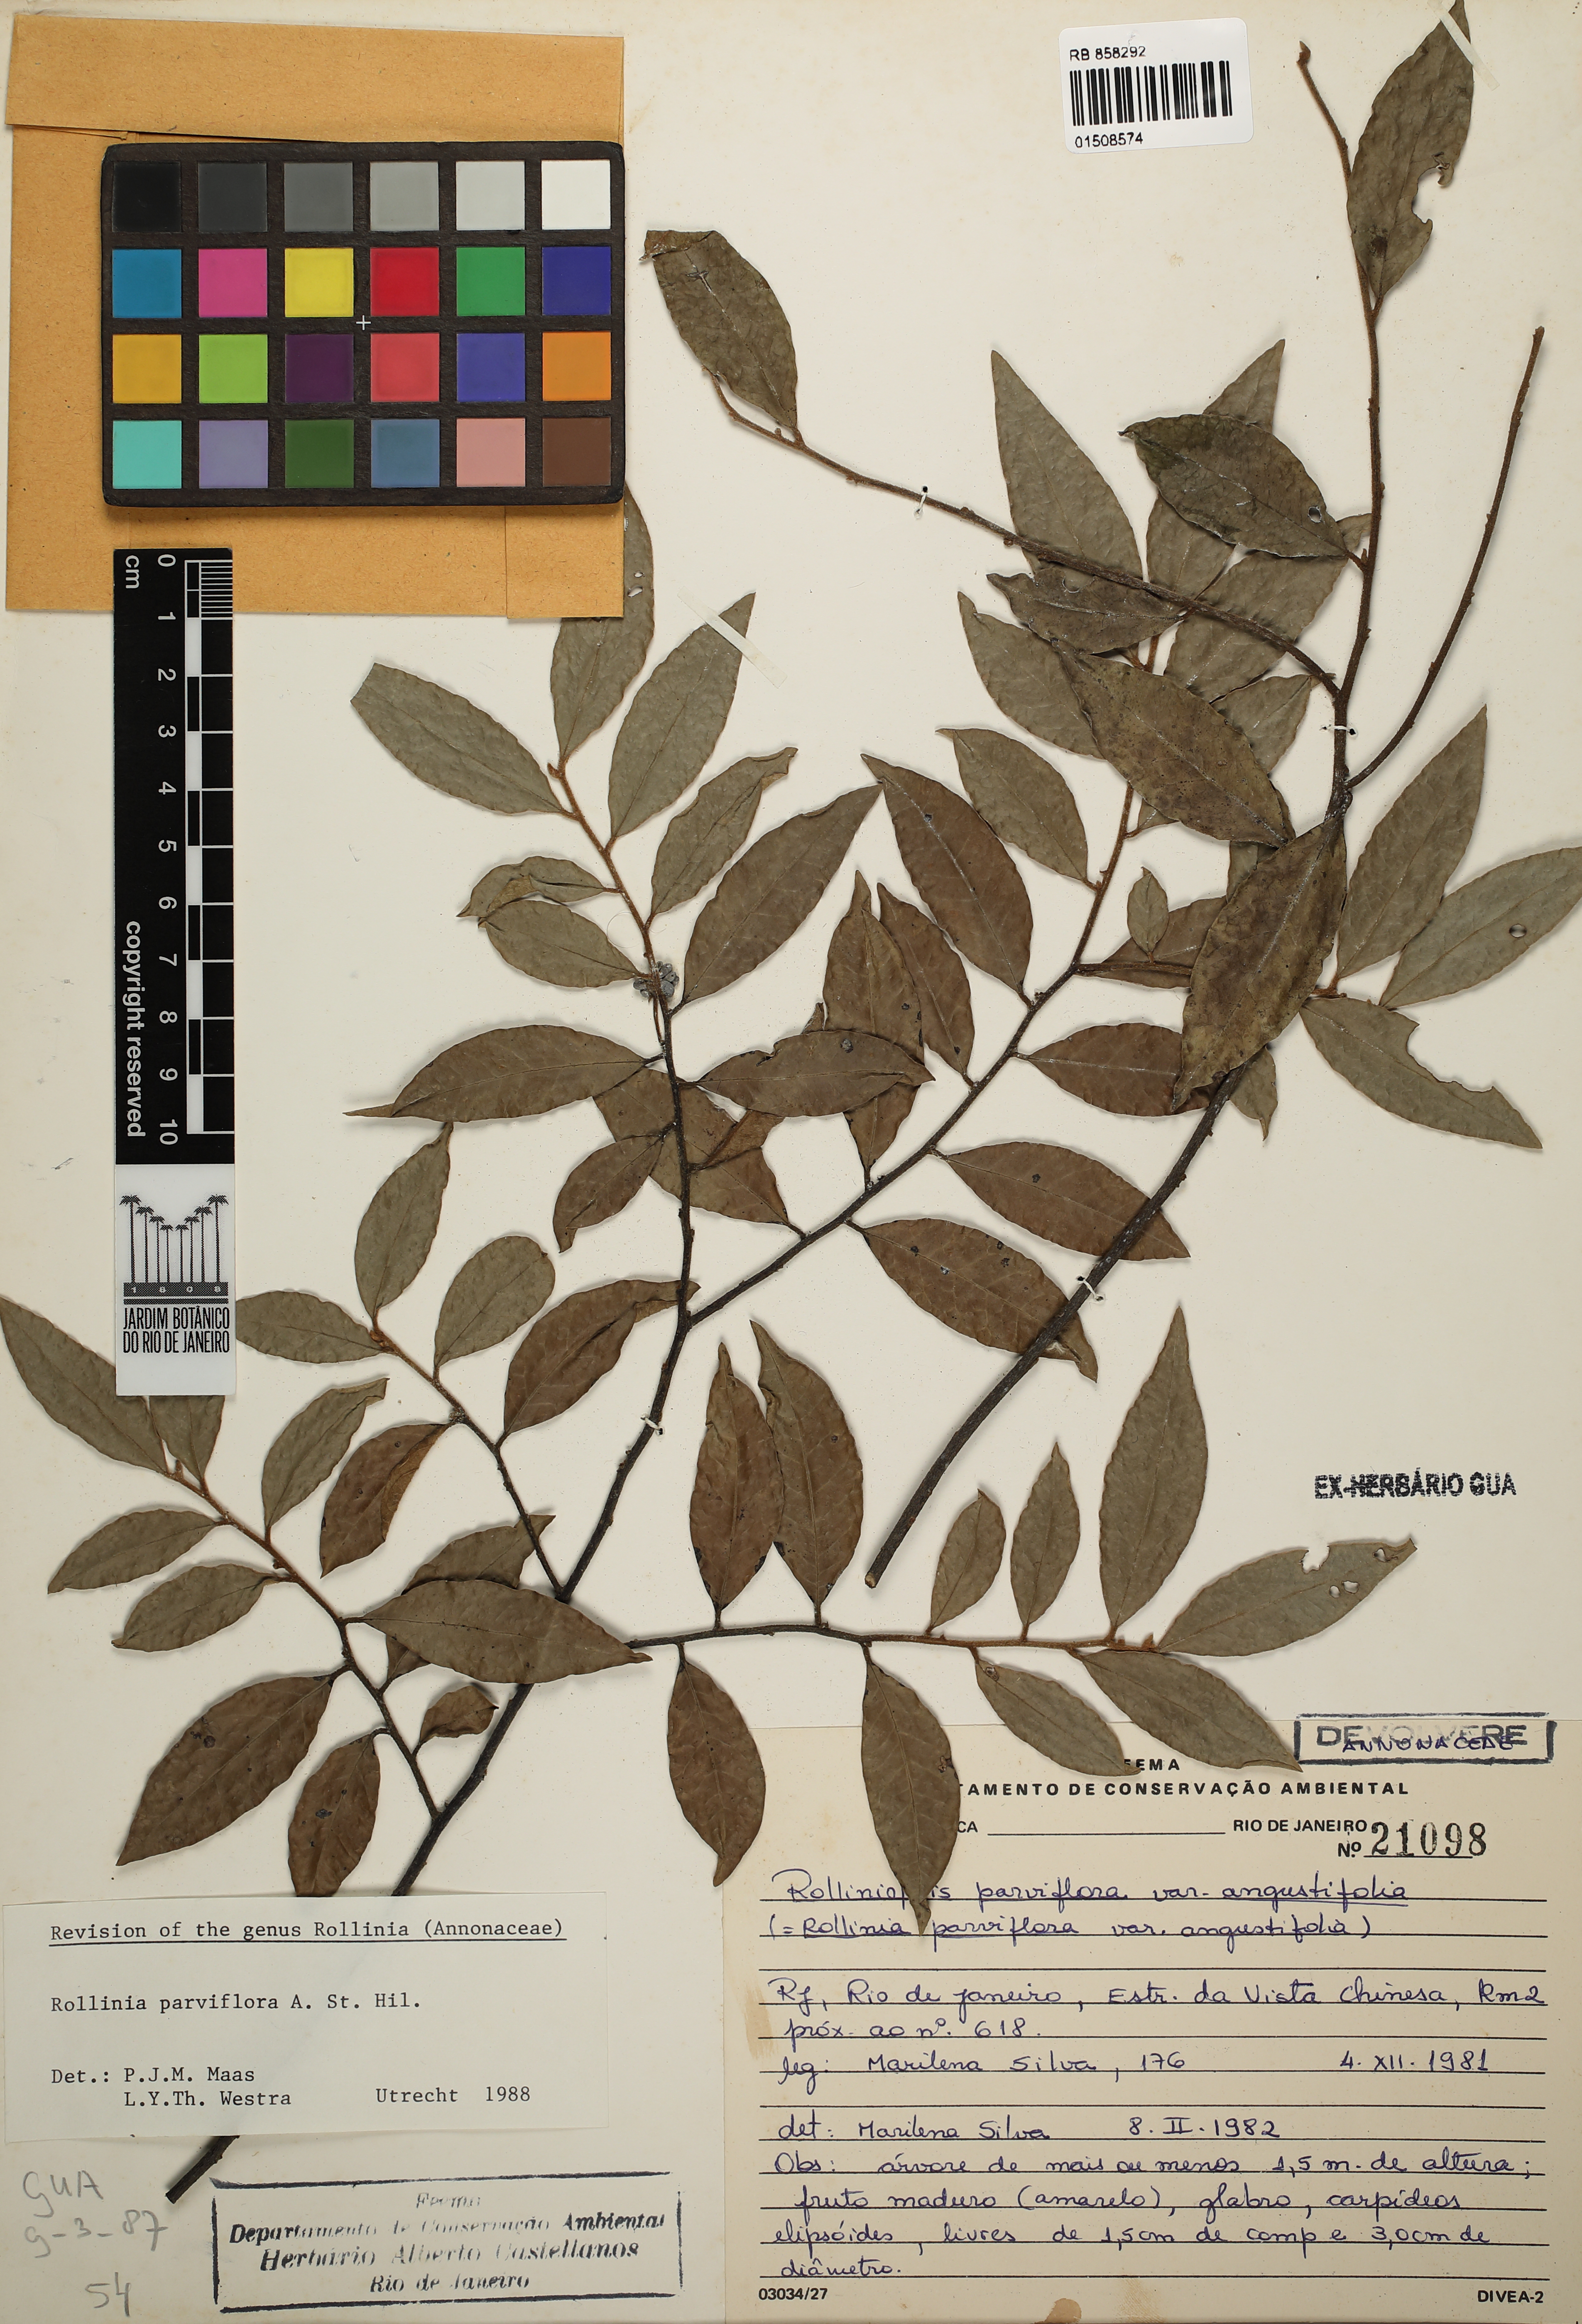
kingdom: Plantae
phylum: Tracheophyta
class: Magnoliopsida
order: Magnoliales
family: Annonaceae
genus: Annona
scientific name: Annona parviflora
